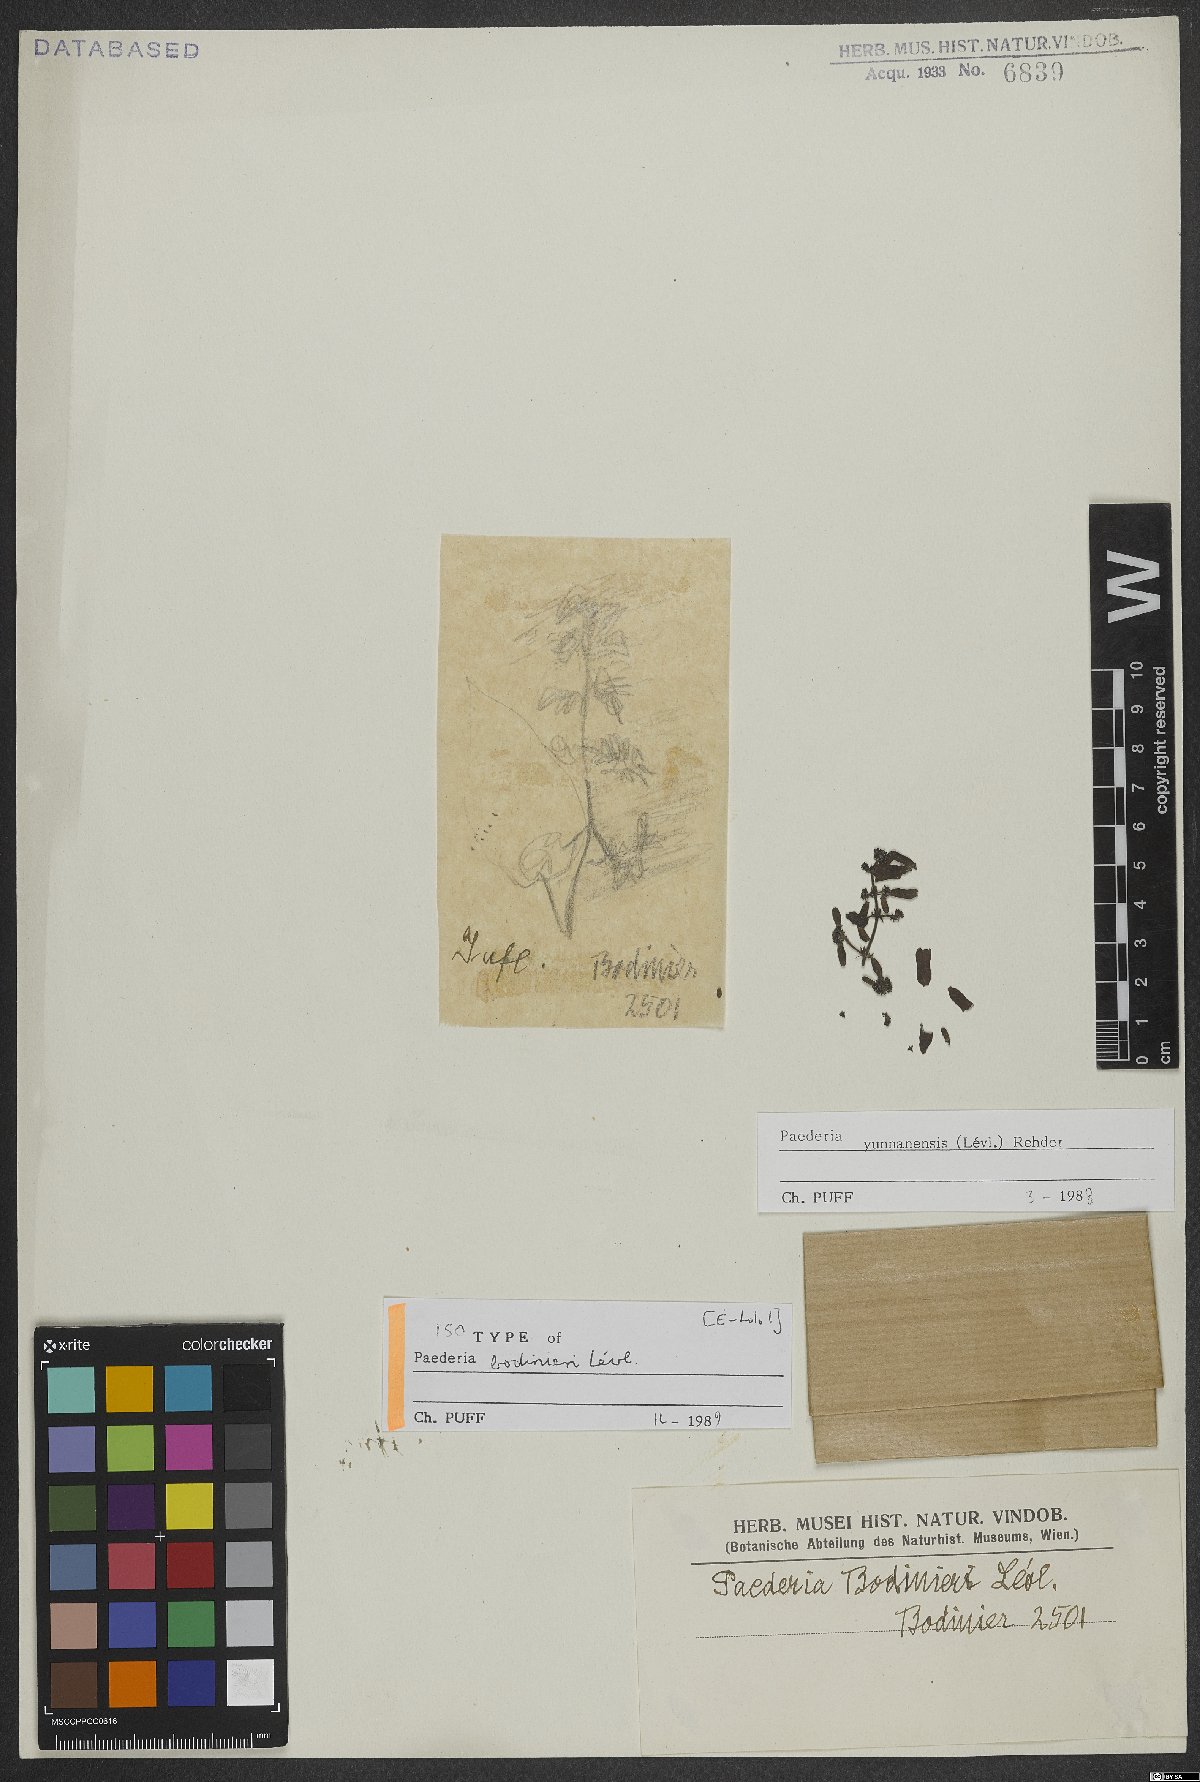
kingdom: Plantae
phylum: Tracheophyta
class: Magnoliopsida
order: Gentianales
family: Rubiaceae
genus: Paederia
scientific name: Paederia yunnanensis
